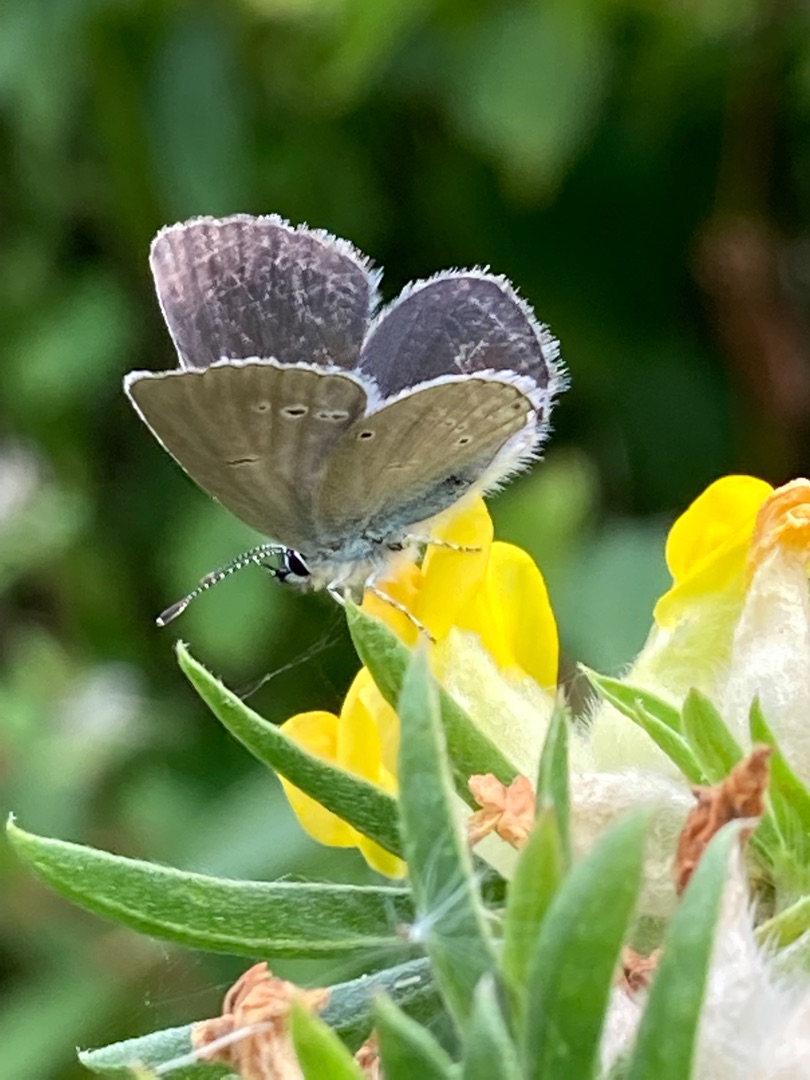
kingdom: Animalia
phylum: Arthropoda
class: Insecta
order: Lepidoptera
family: Lycaenidae
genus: Cupido
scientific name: Cupido minimus
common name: Dværgblåfugl
